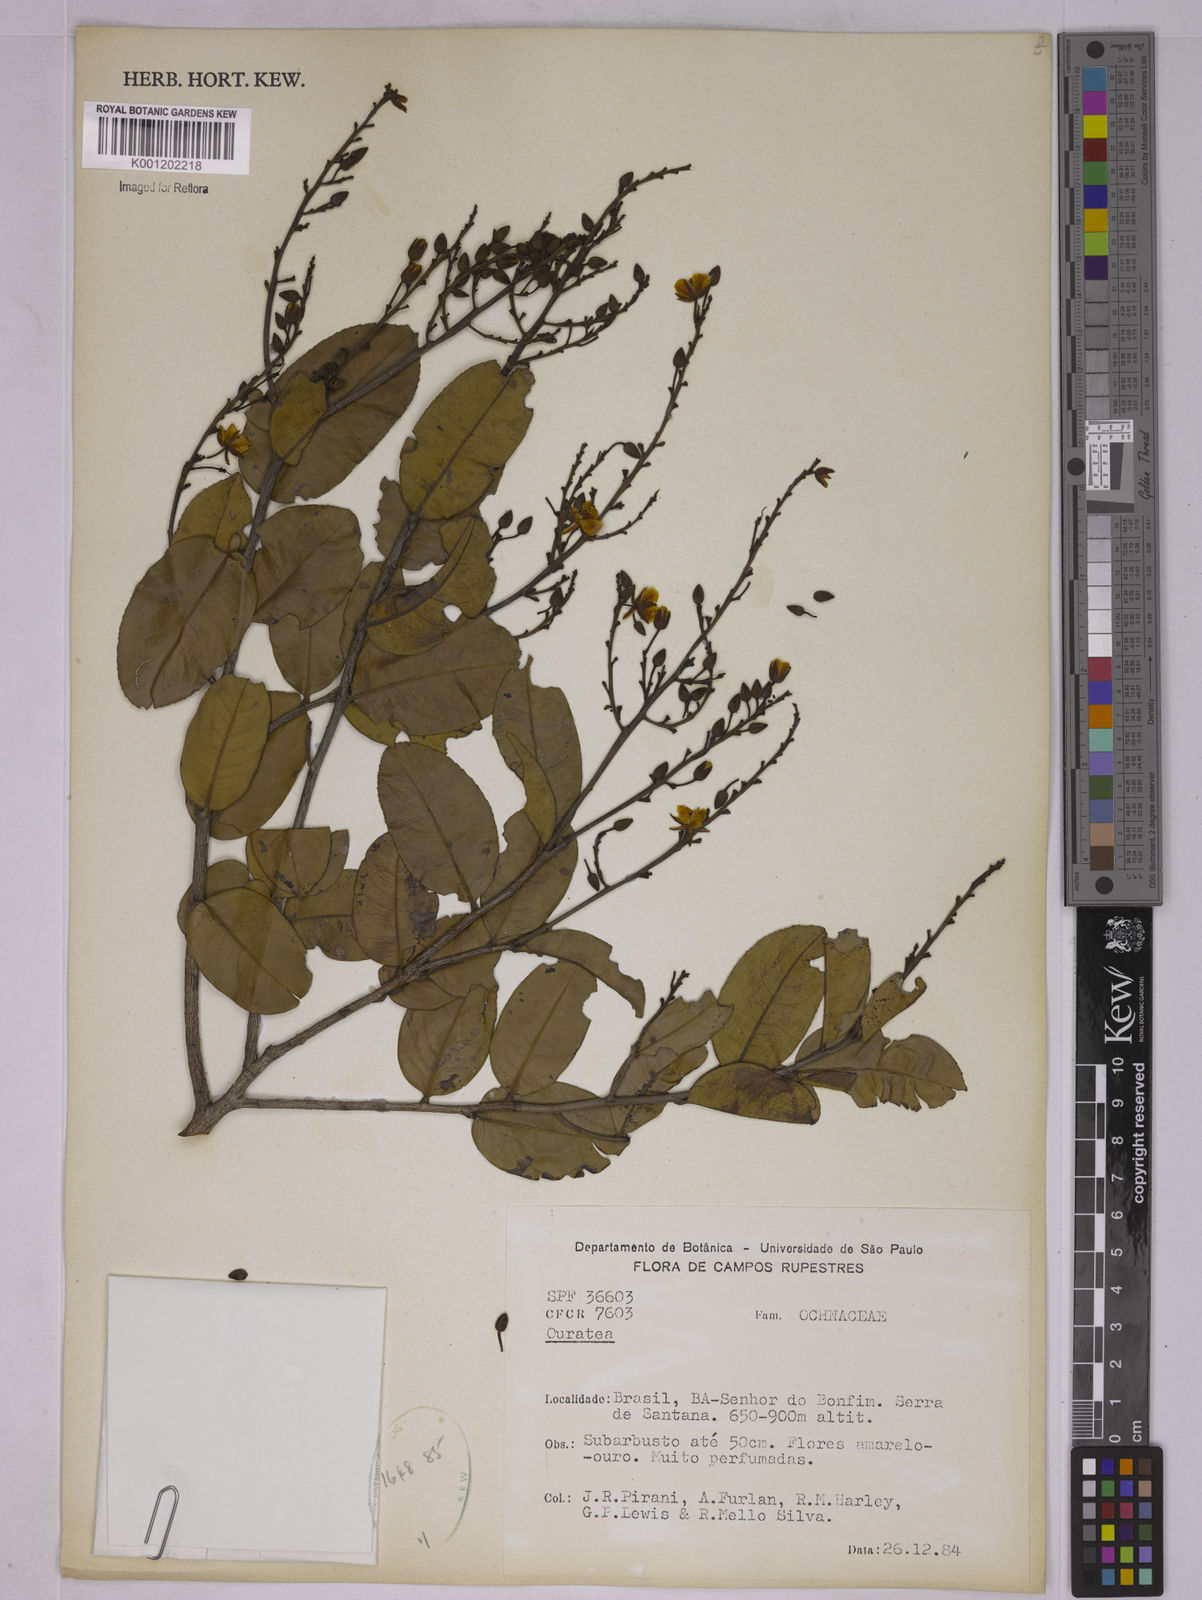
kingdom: Plantae
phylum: Tracheophyta
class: Magnoliopsida
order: Malpighiales
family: Ochnaceae
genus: Ouratea
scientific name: Ouratea
